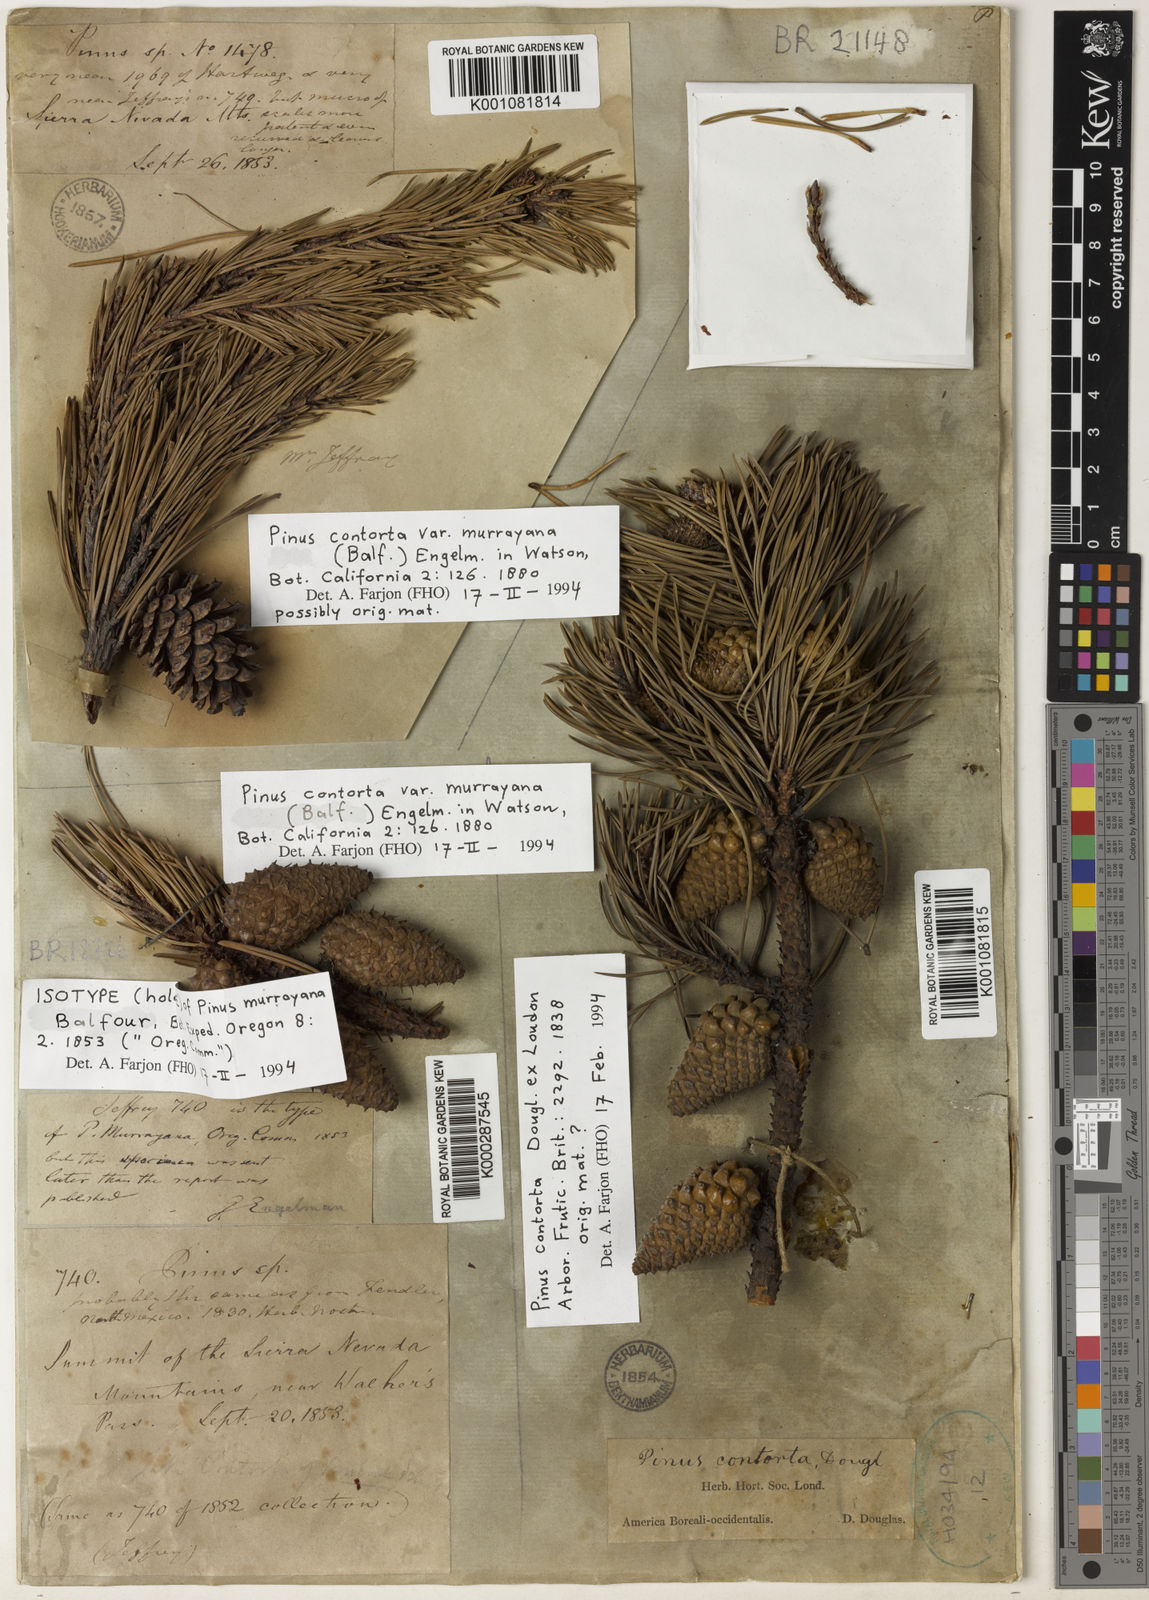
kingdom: Plantae
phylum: Tracheophyta
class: Pinopsida
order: Pinales
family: Pinaceae
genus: Pinus
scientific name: Pinus contorta
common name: Lodgepole pine
